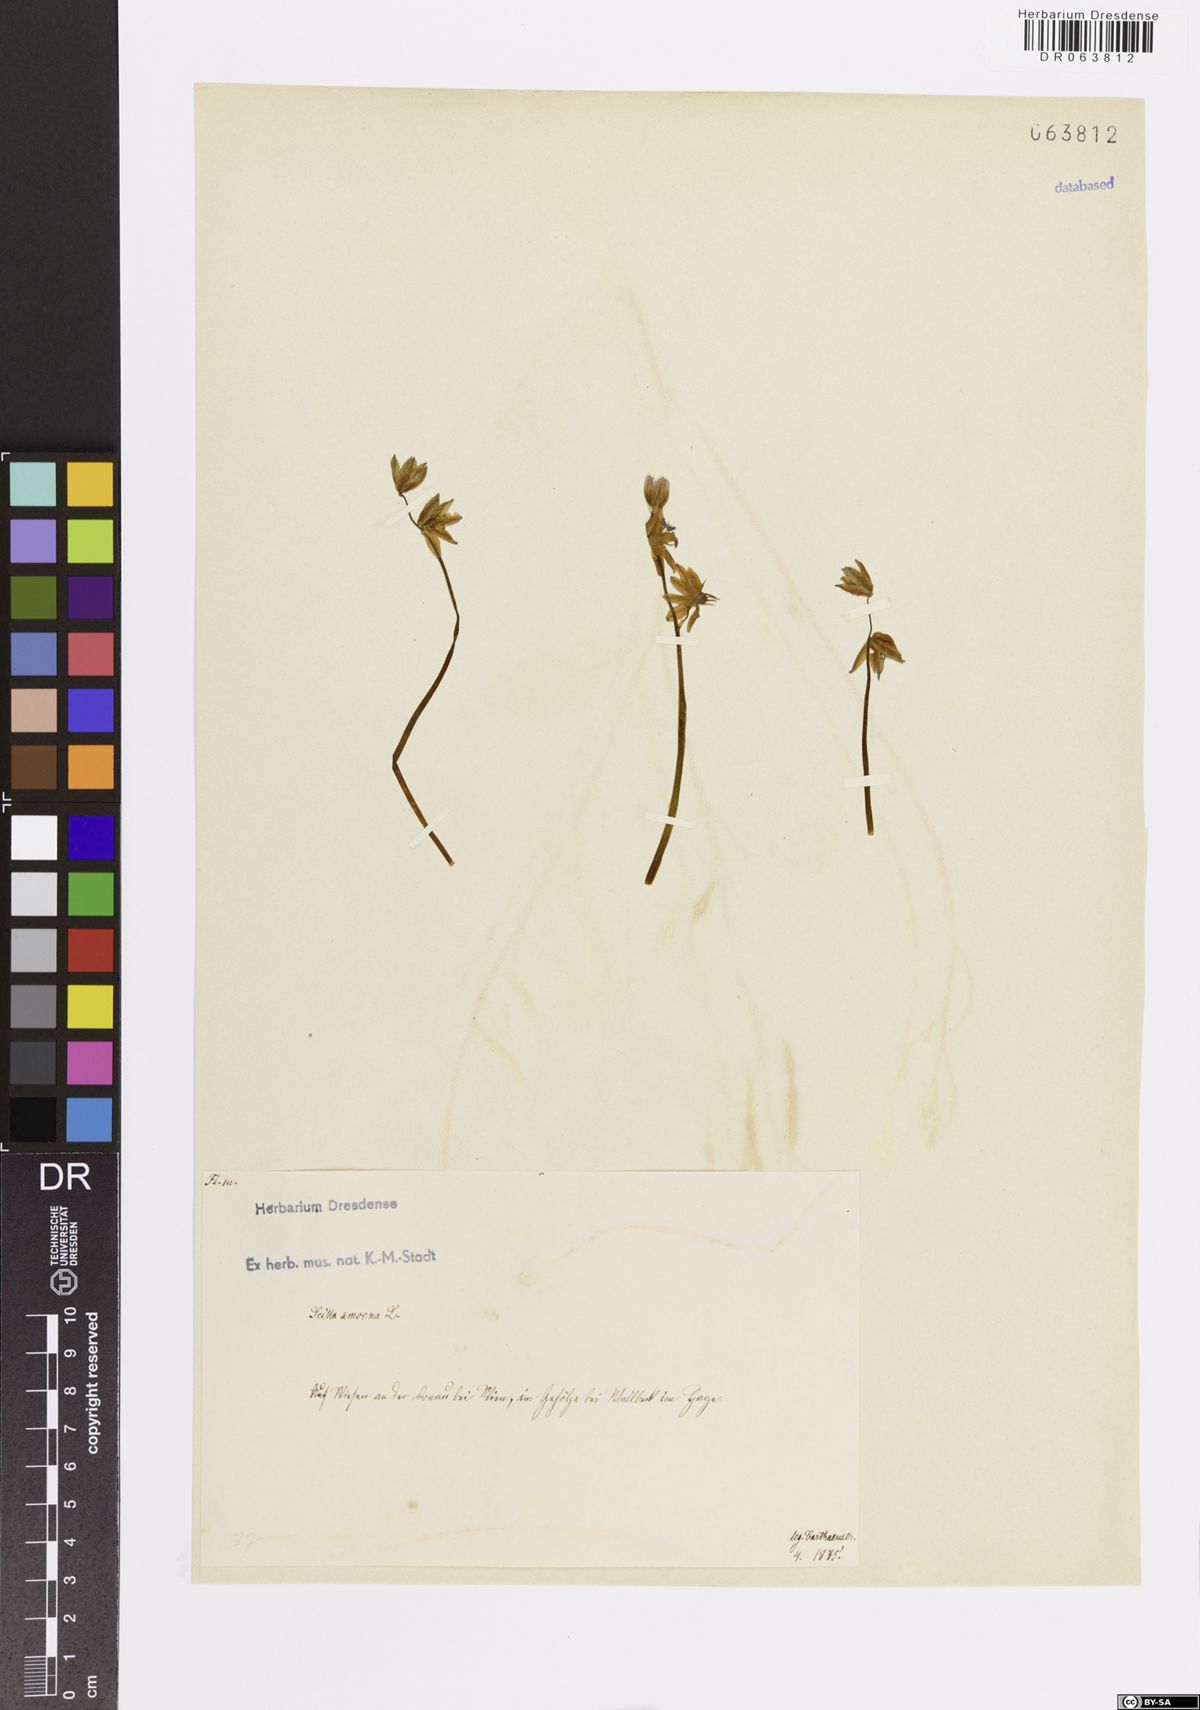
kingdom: Plantae
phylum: Tracheophyta
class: Liliopsida
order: Asparagales
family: Asparagaceae
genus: Scilla
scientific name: Scilla amoena
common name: Star-hyacinth
